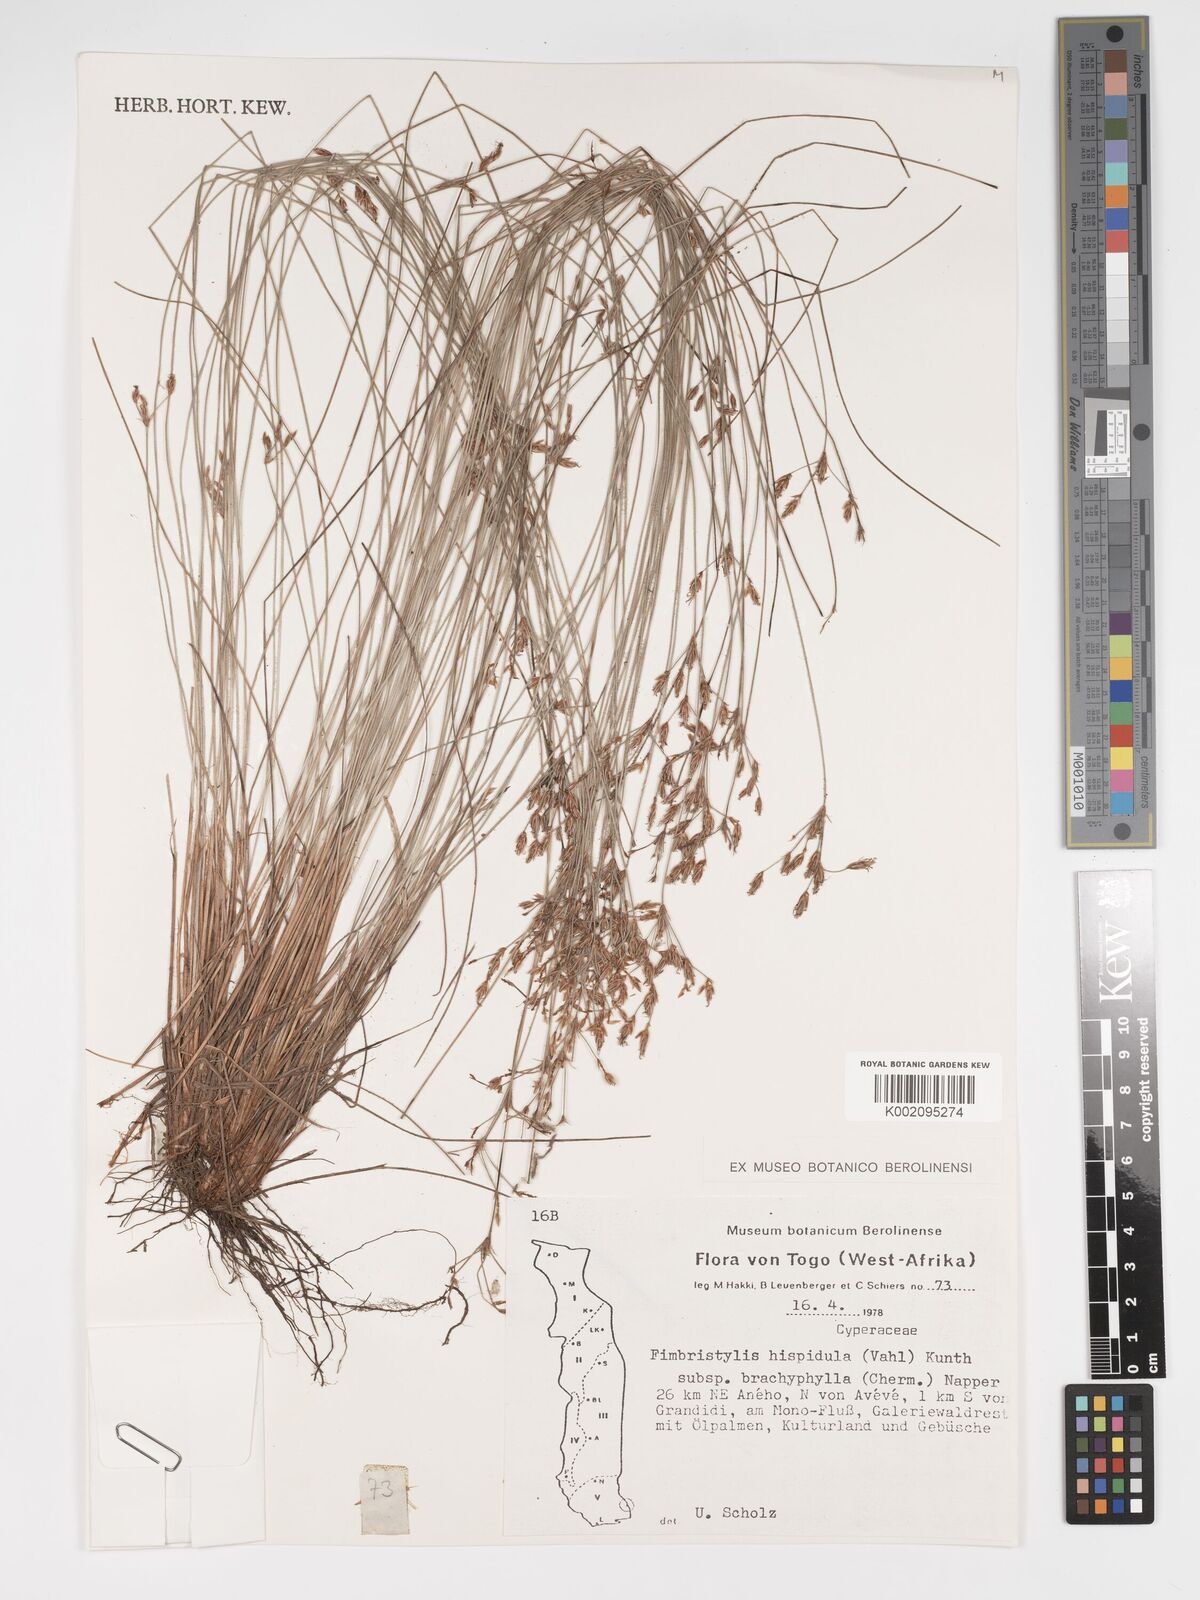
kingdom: Plantae
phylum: Tracheophyta
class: Liliopsida
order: Poales
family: Cyperaceae
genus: Bulbostylis
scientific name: Bulbostylis hispidula
